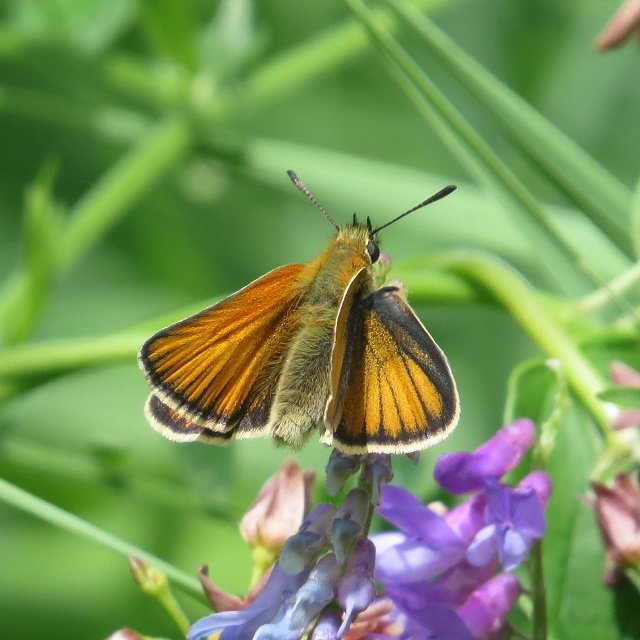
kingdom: Animalia
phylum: Arthropoda
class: Insecta
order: Lepidoptera
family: Hesperiidae
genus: Thymelicus
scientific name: Thymelicus lineola
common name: European Skipper
